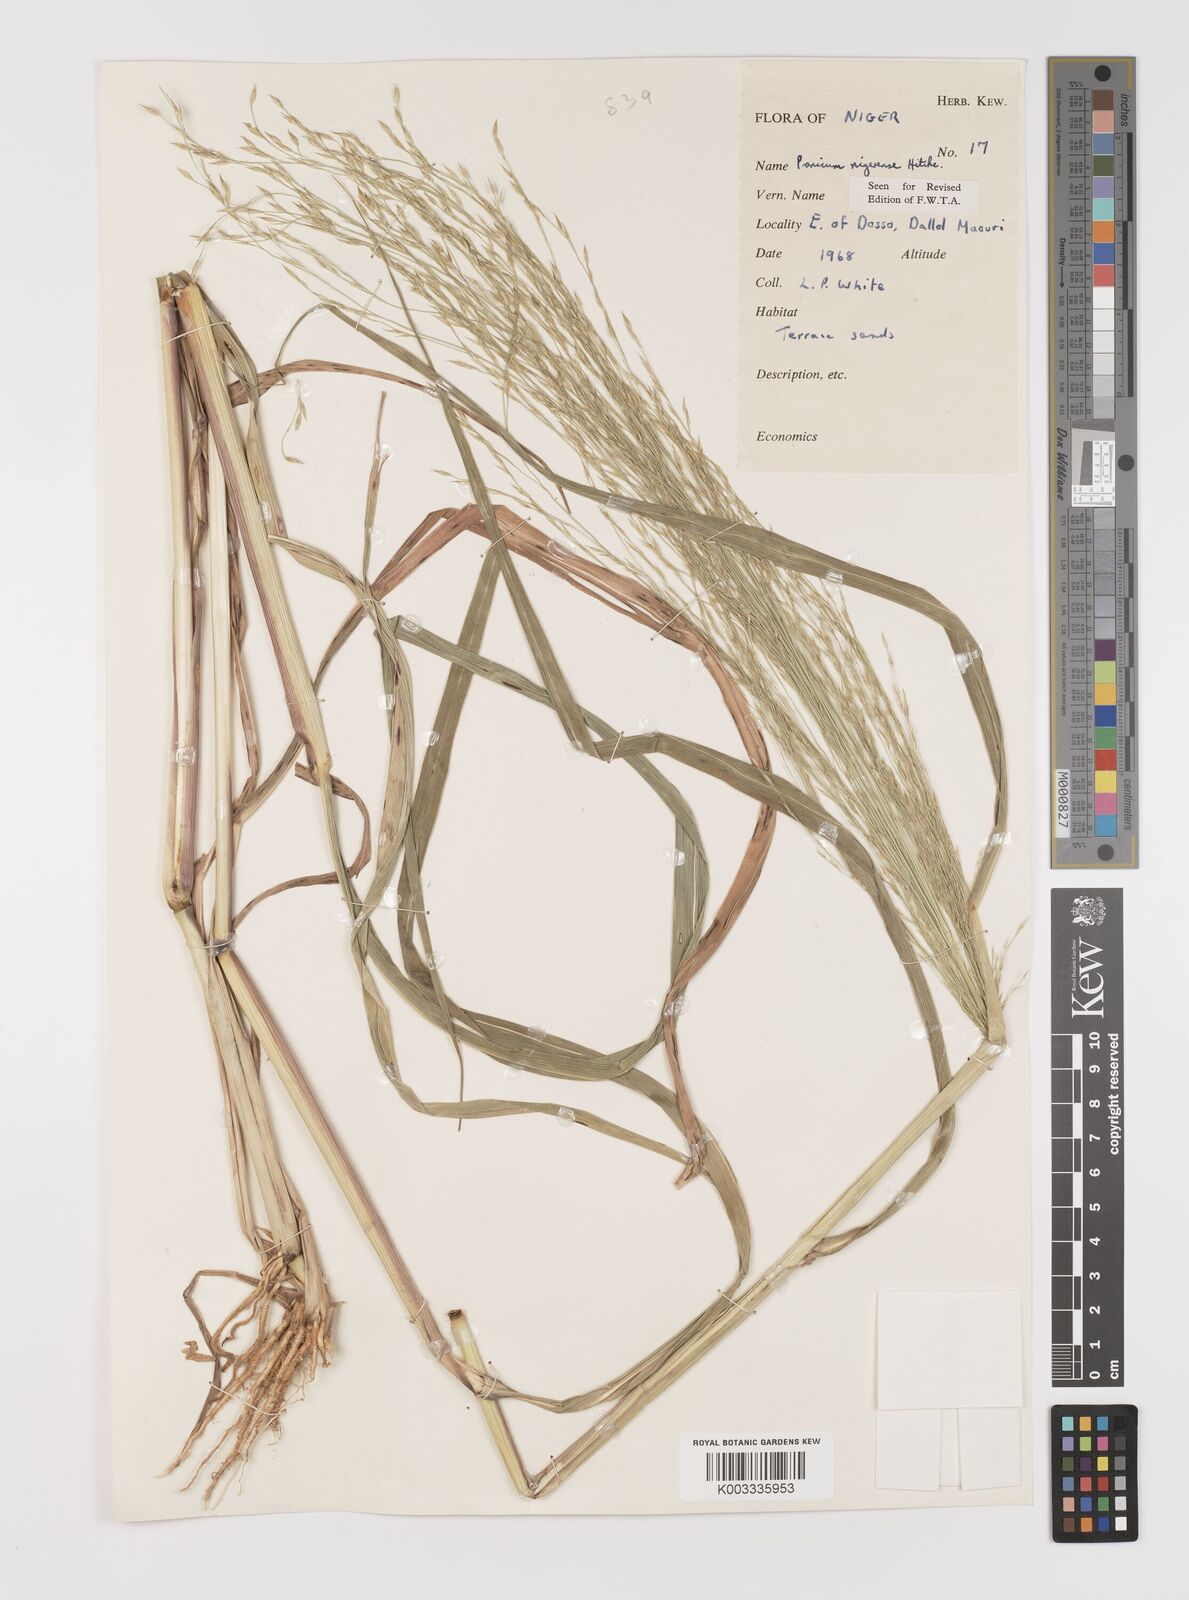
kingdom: Plantae
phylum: Tracheophyta
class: Liliopsida
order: Poales
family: Poaceae
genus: Panicum
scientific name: Panicum nigerense
